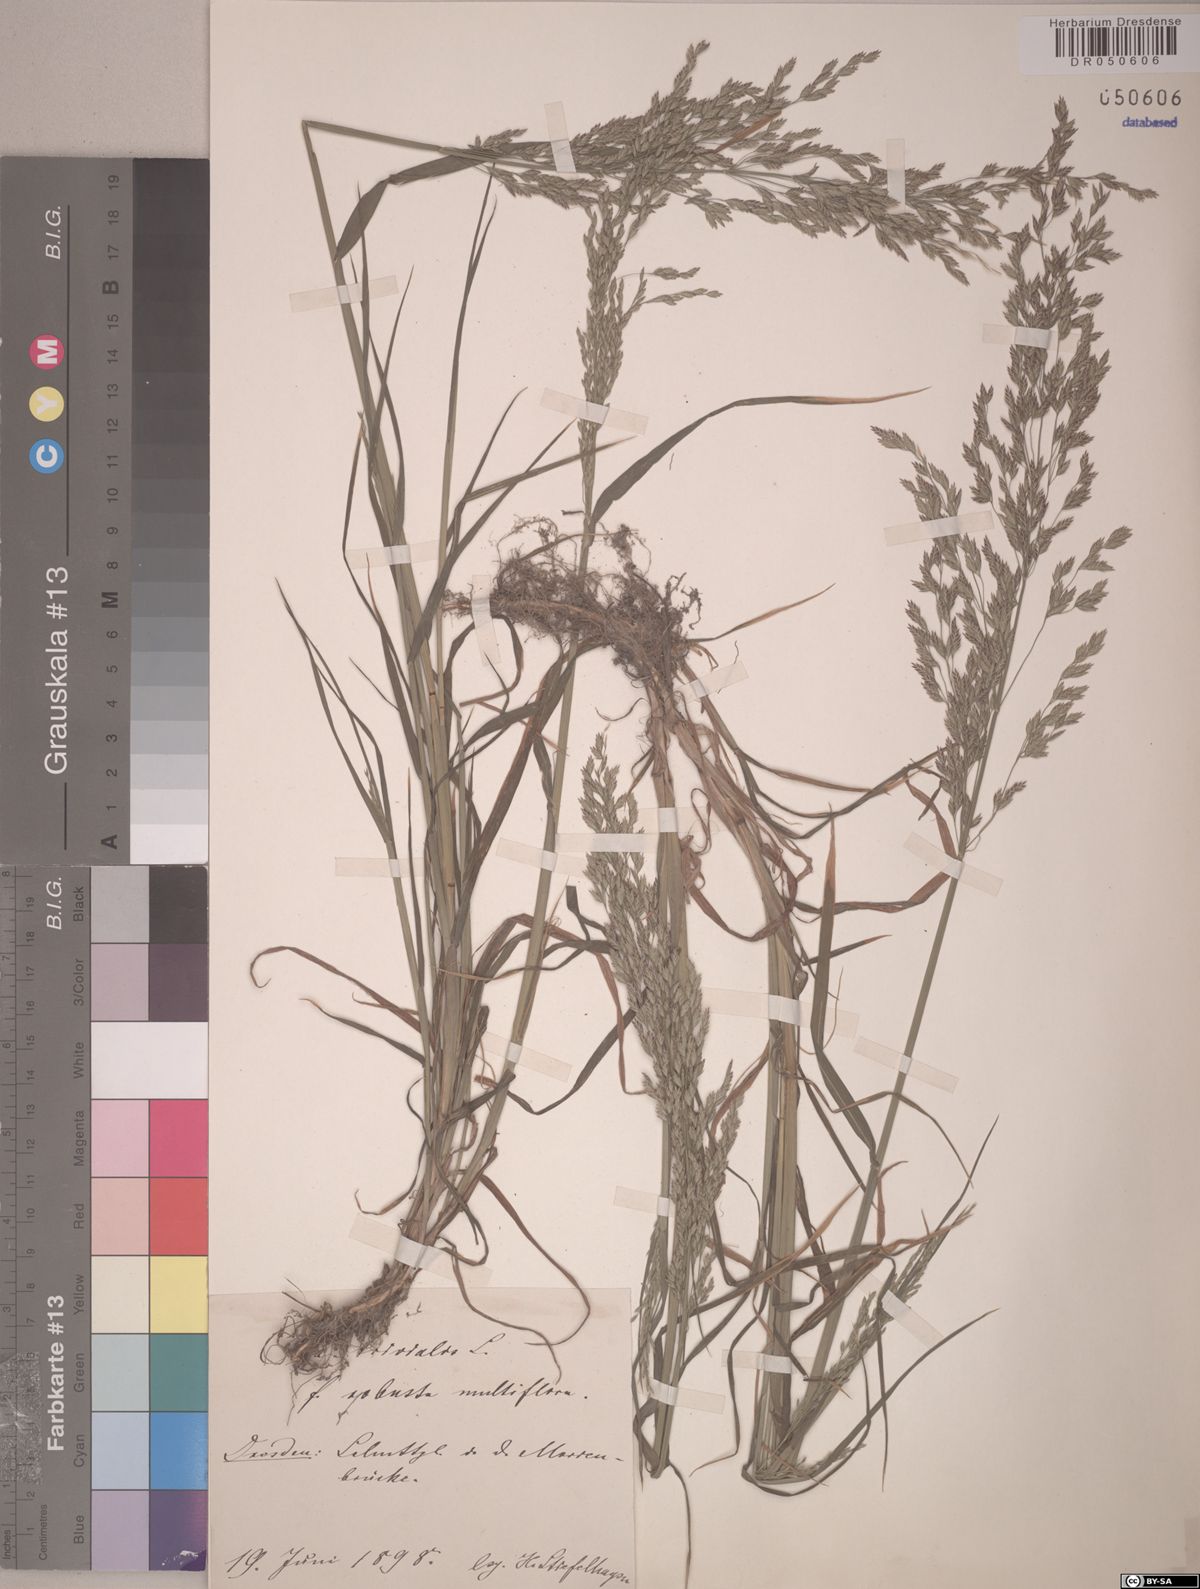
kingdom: Plantae
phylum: Tracheophyta
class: Liliopsida
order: Poales
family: Poaceae
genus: Poa
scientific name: Poa trivialis
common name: Rough bluegrass
